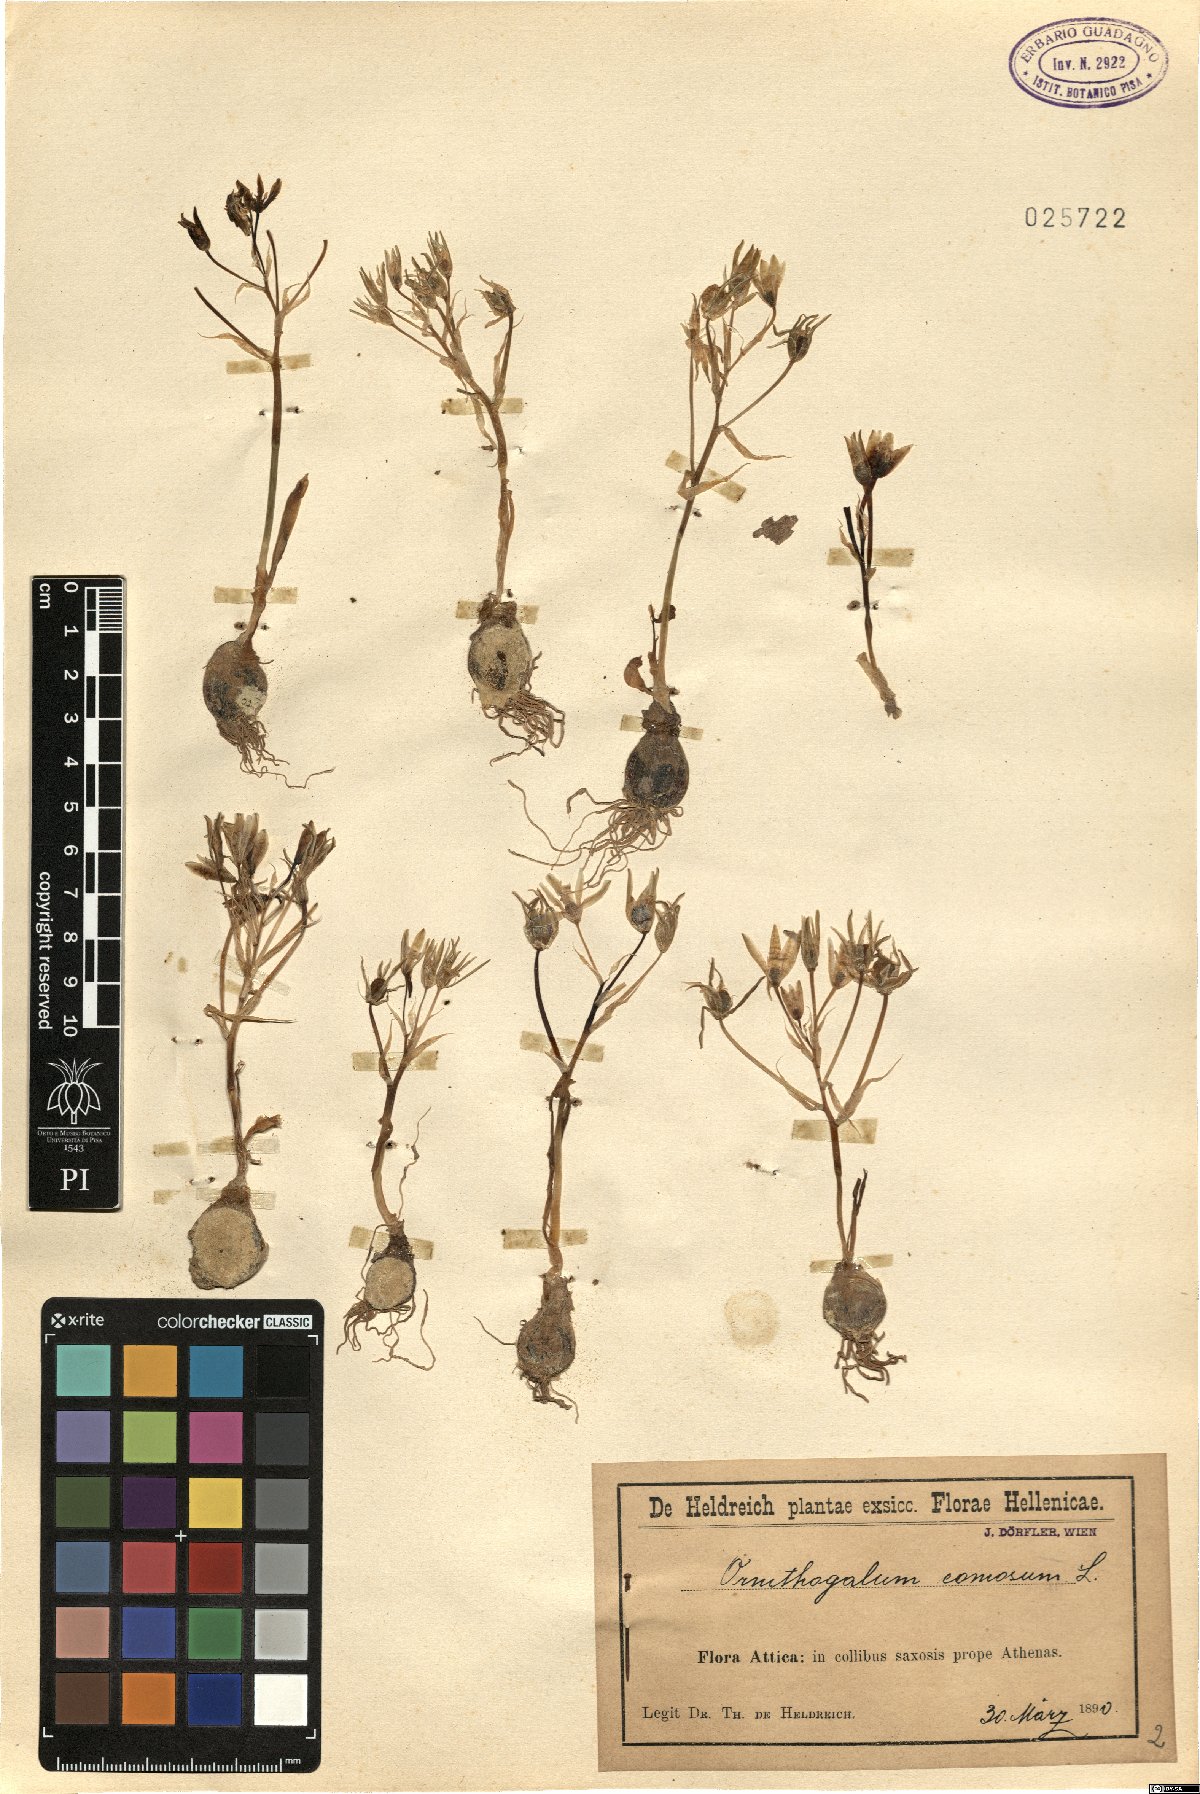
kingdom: Plantae
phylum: Tracheophyta
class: Liliopsida
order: Asparagales
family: Asparagaceae
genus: Ornithogalum
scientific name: Ornithogalum comosum
